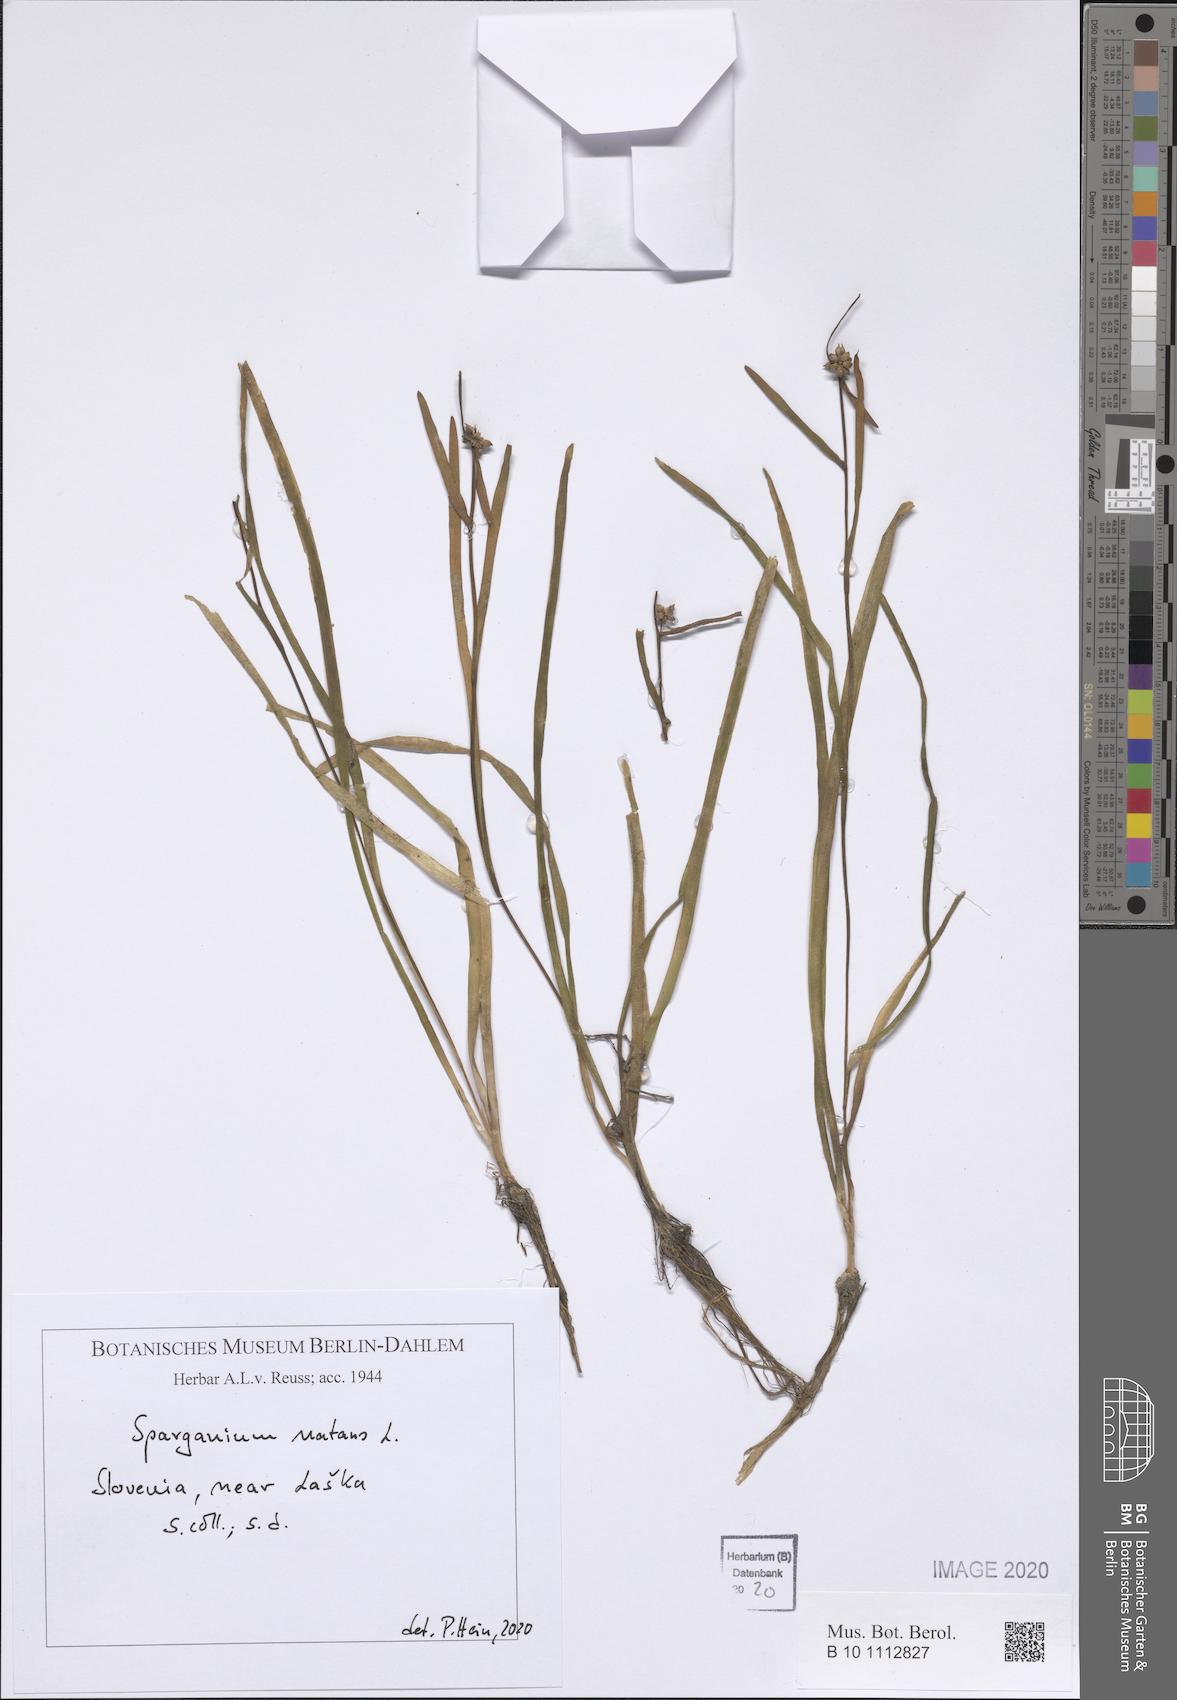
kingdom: Plantae
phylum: Tracheophyta
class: Liliopsida
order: Poales
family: Typhaceae
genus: Sparganium
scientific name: Sparganium natans
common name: Least bur-reed
